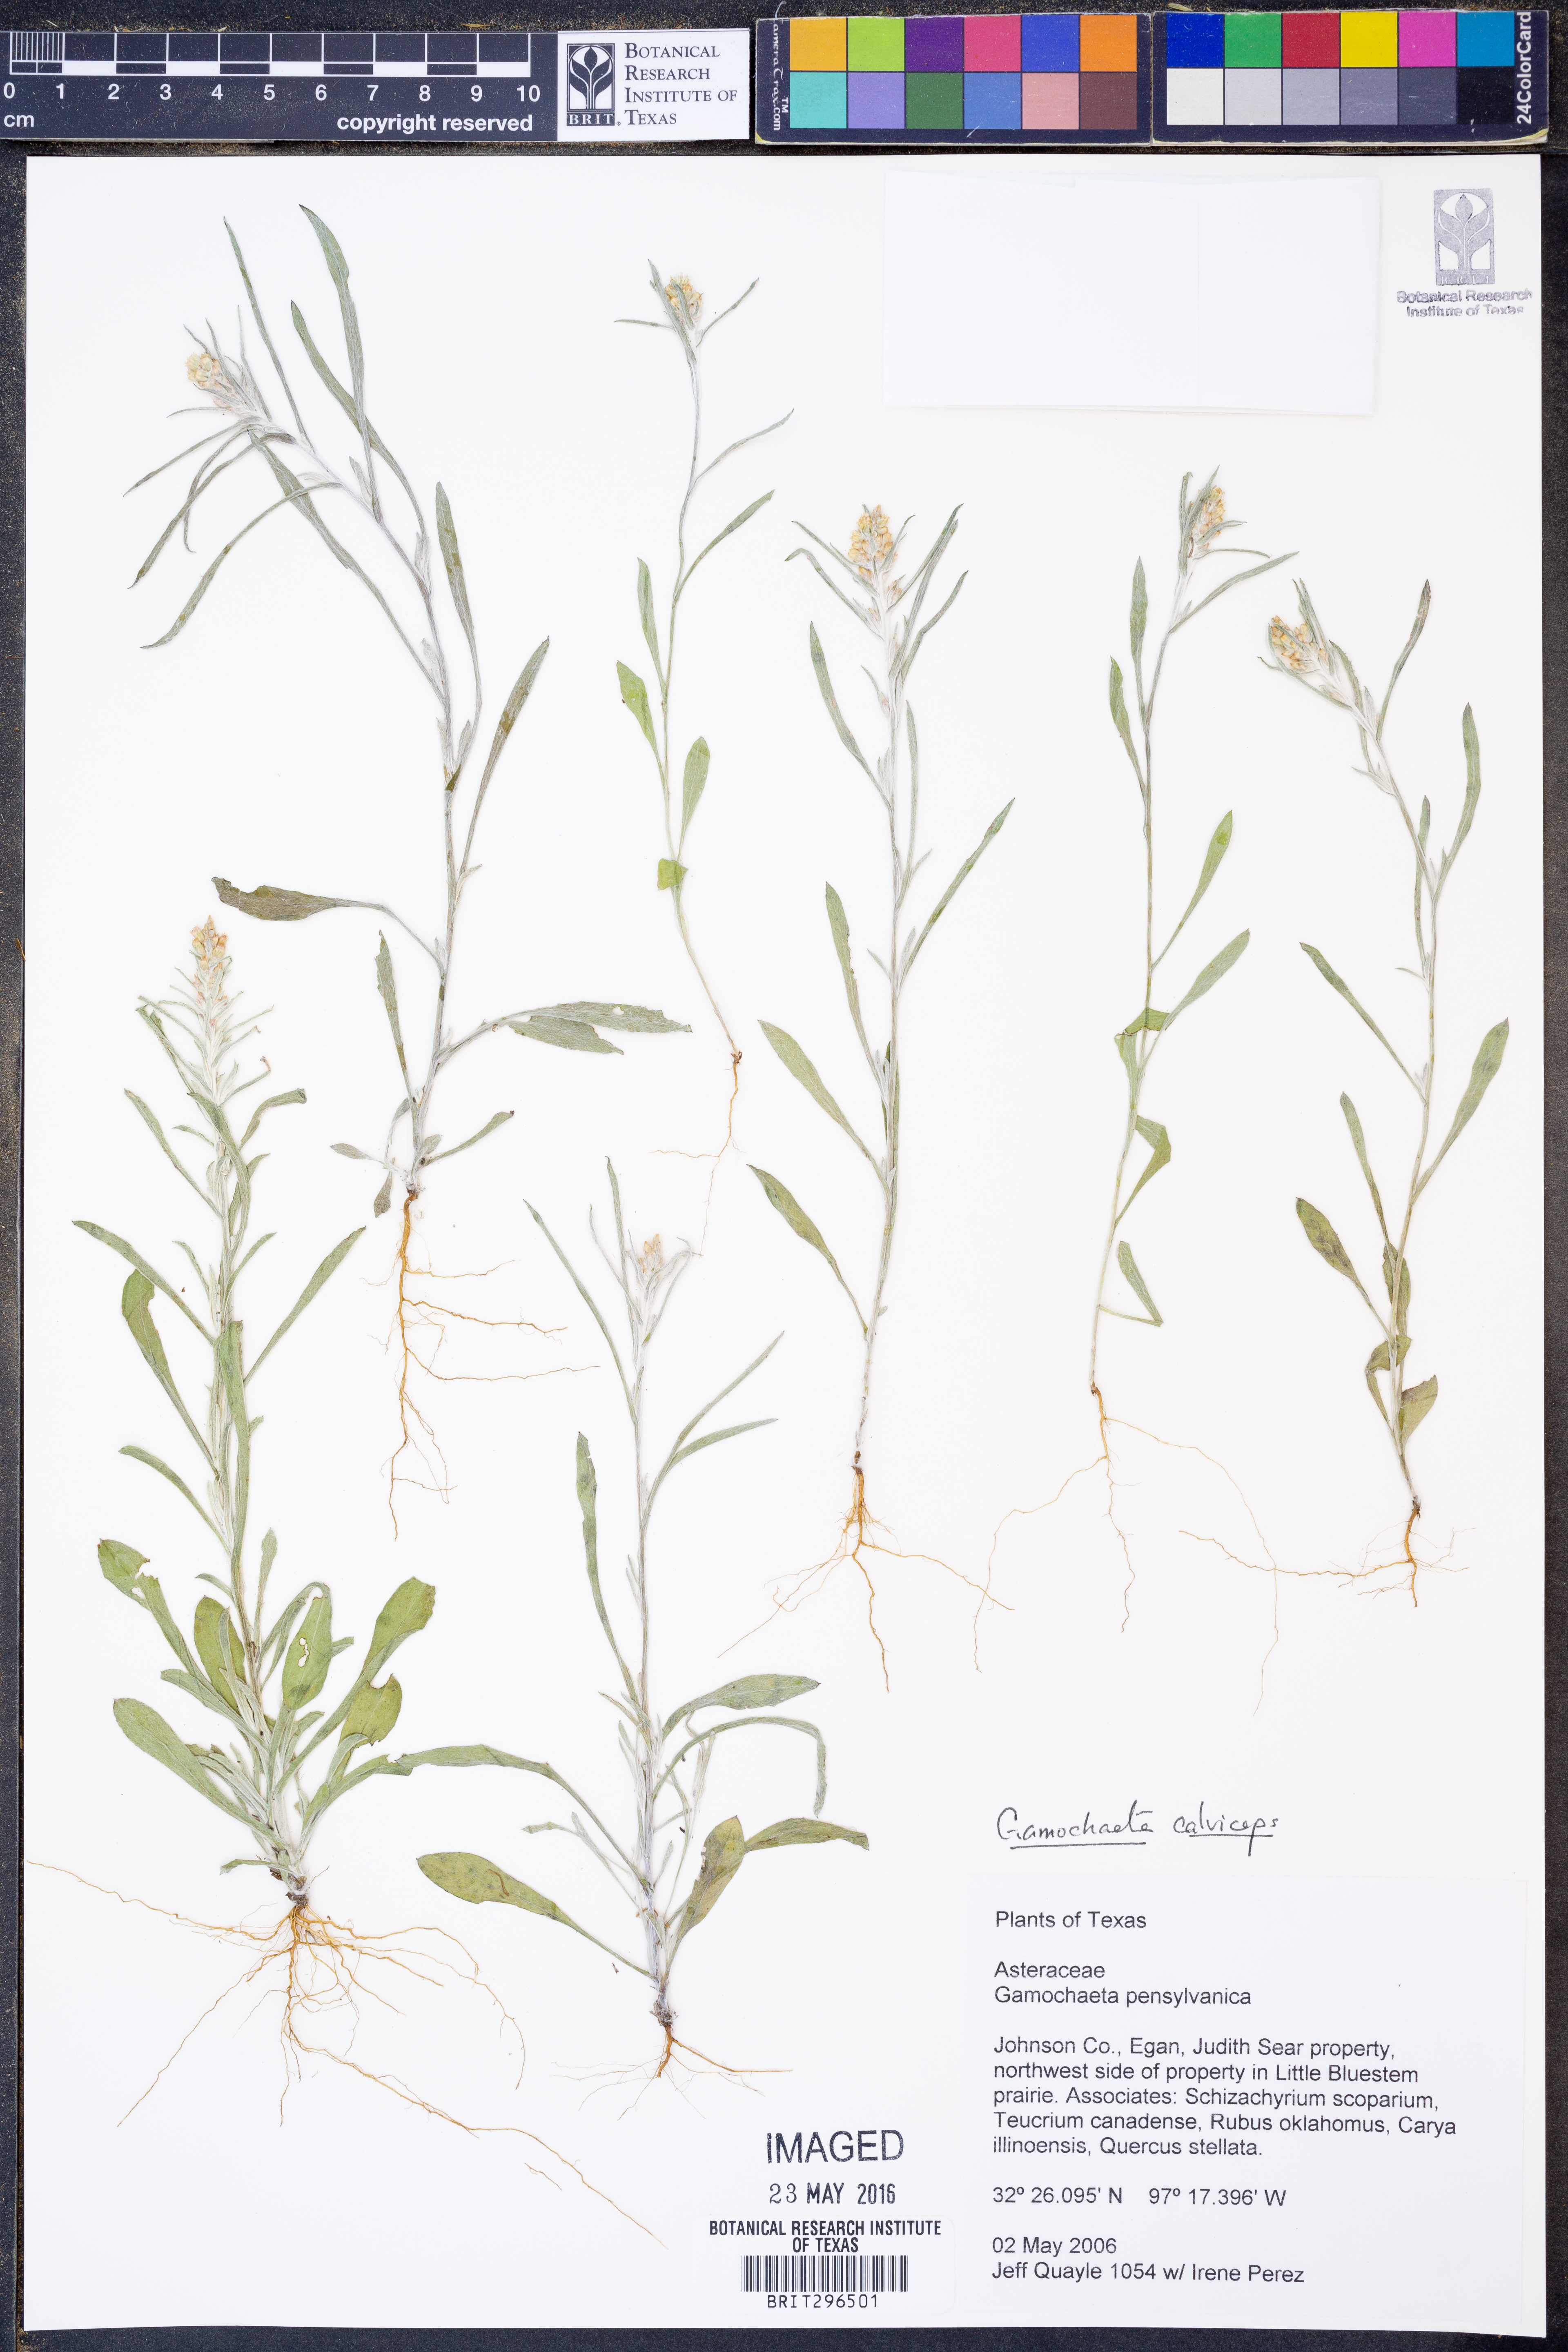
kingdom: Plantae
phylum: Tracheophyta
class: Magnoliopsida
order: Asterales
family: Asteraceae
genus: Gamochaeta
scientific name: Gamochaeta calviceps
